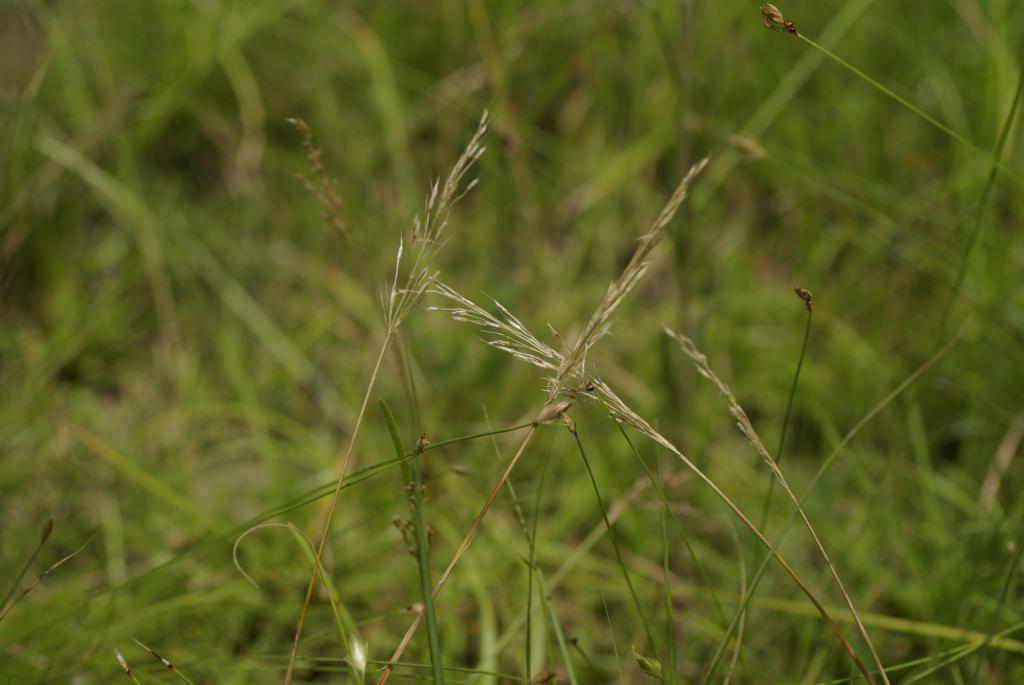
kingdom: Plantae
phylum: Tracheophyta
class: Liliopsida
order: Poales
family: Poaceae
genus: Chrysopogon
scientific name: Chrysopogon aciculatus
